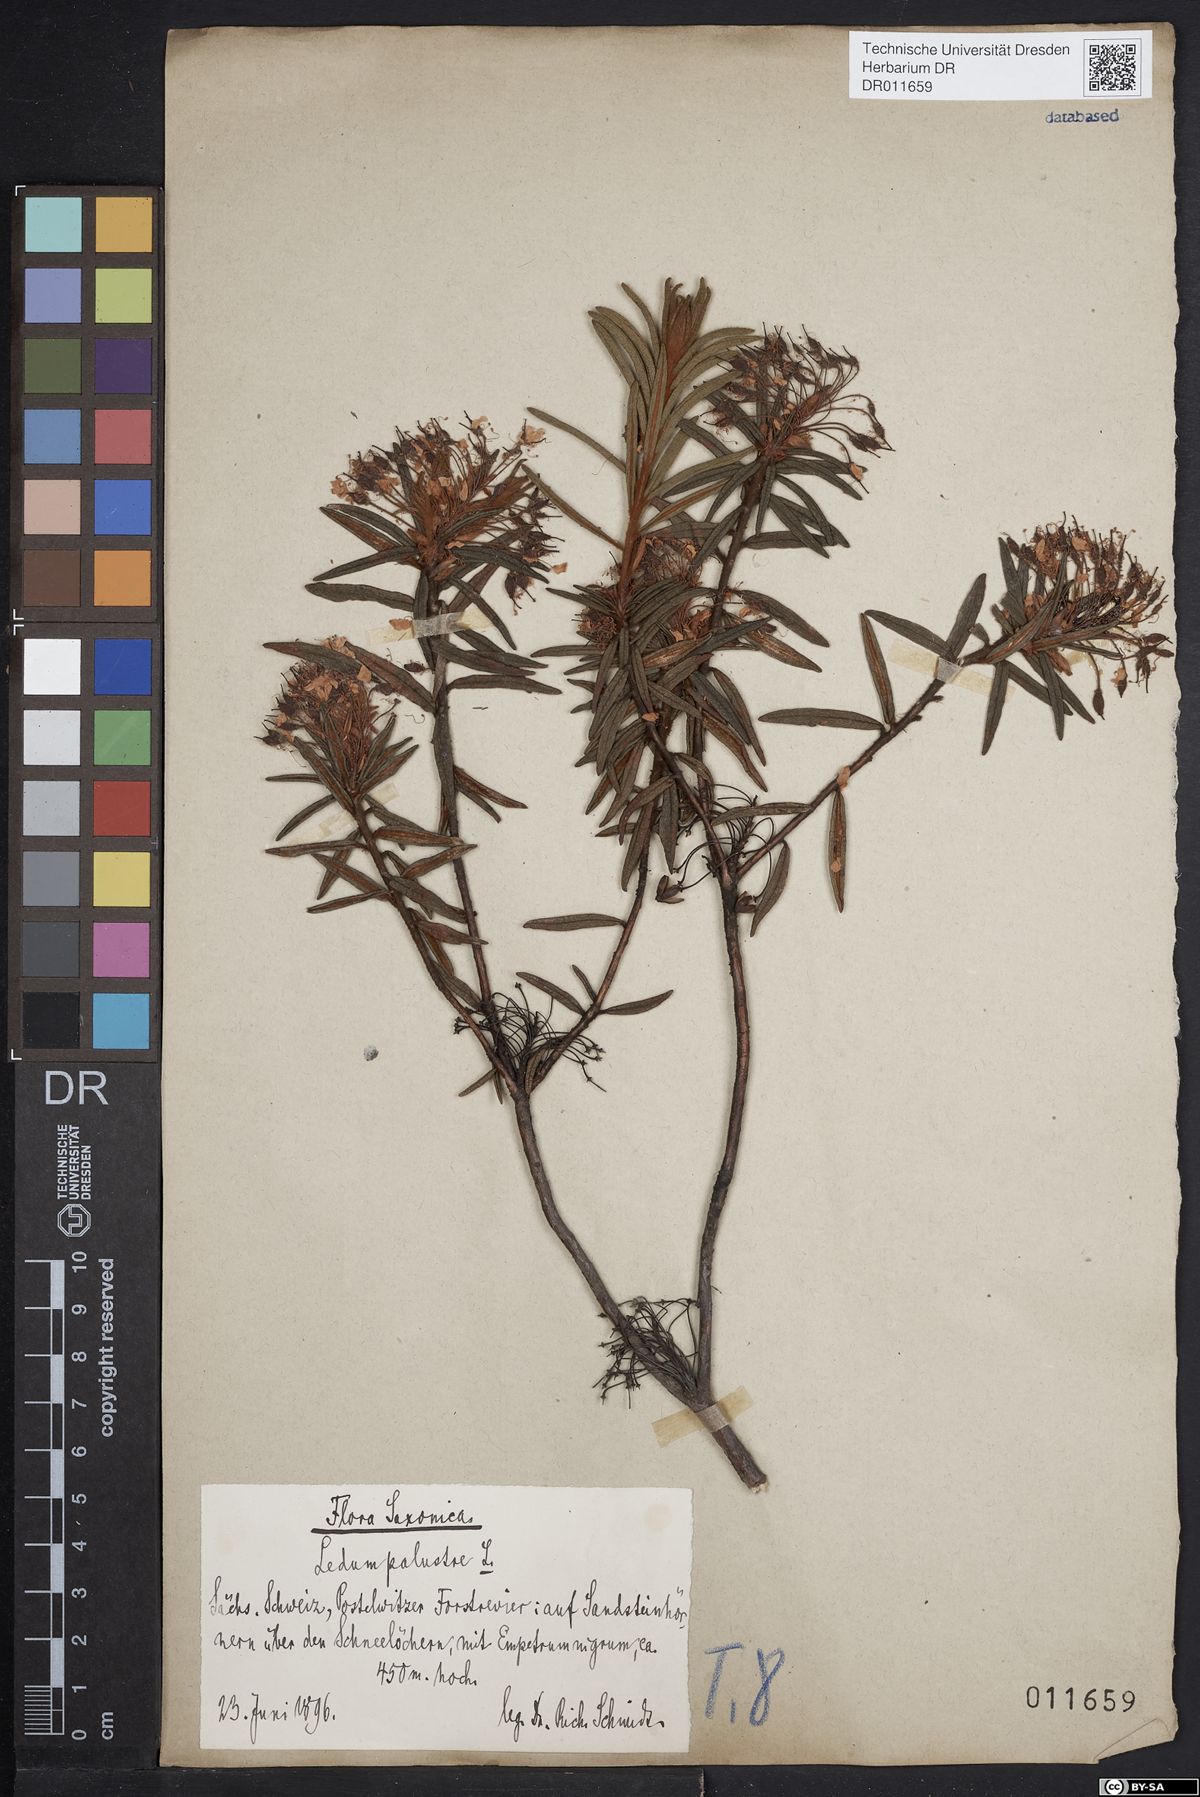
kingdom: Plantae
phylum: Tracheophyta
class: Magnoliopsida
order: Ericales
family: Ericaceae
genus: Rhododendron
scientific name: Rhododendron tomentosum
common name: Marsh labrador tea
